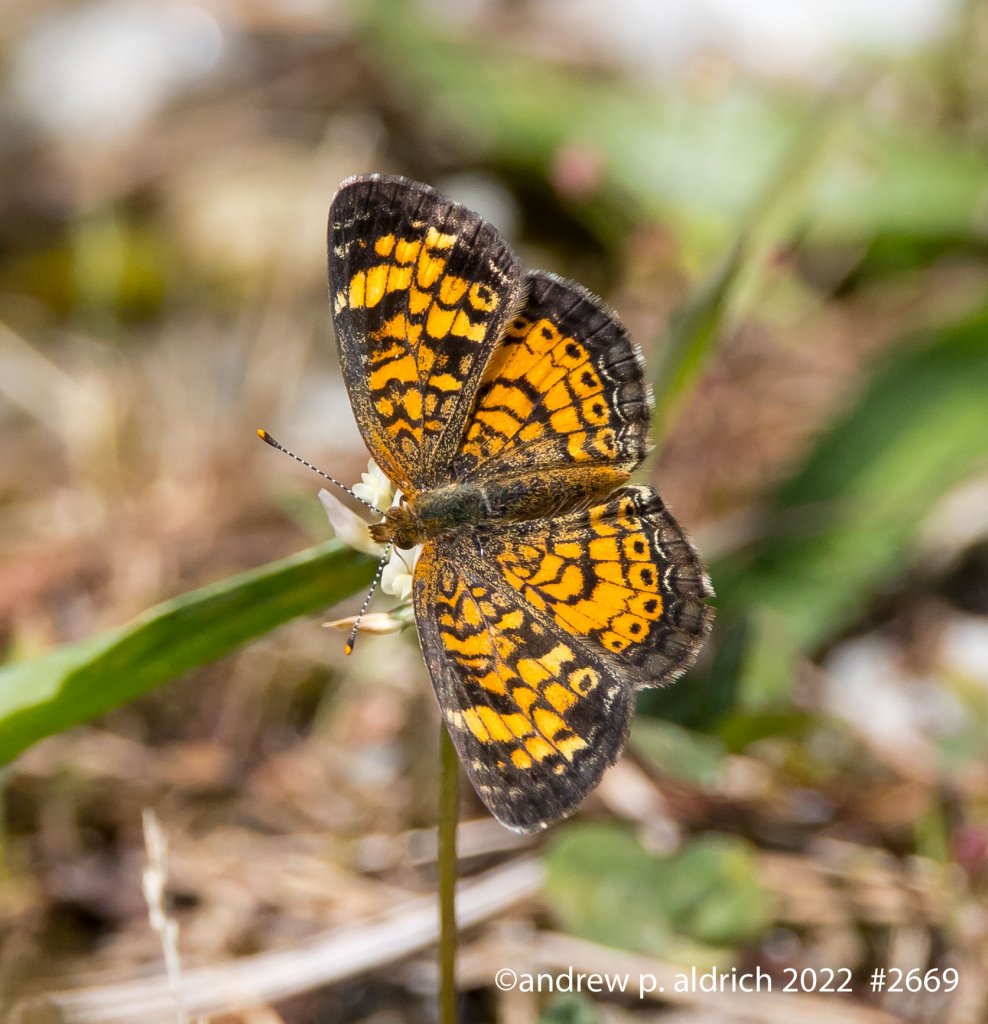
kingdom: Animalia
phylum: Arthropoda
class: Insecta
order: Lepidoptera
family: Nymphalidae
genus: Phyciodes
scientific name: Phyciodes tharos
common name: Pearl Crescent
